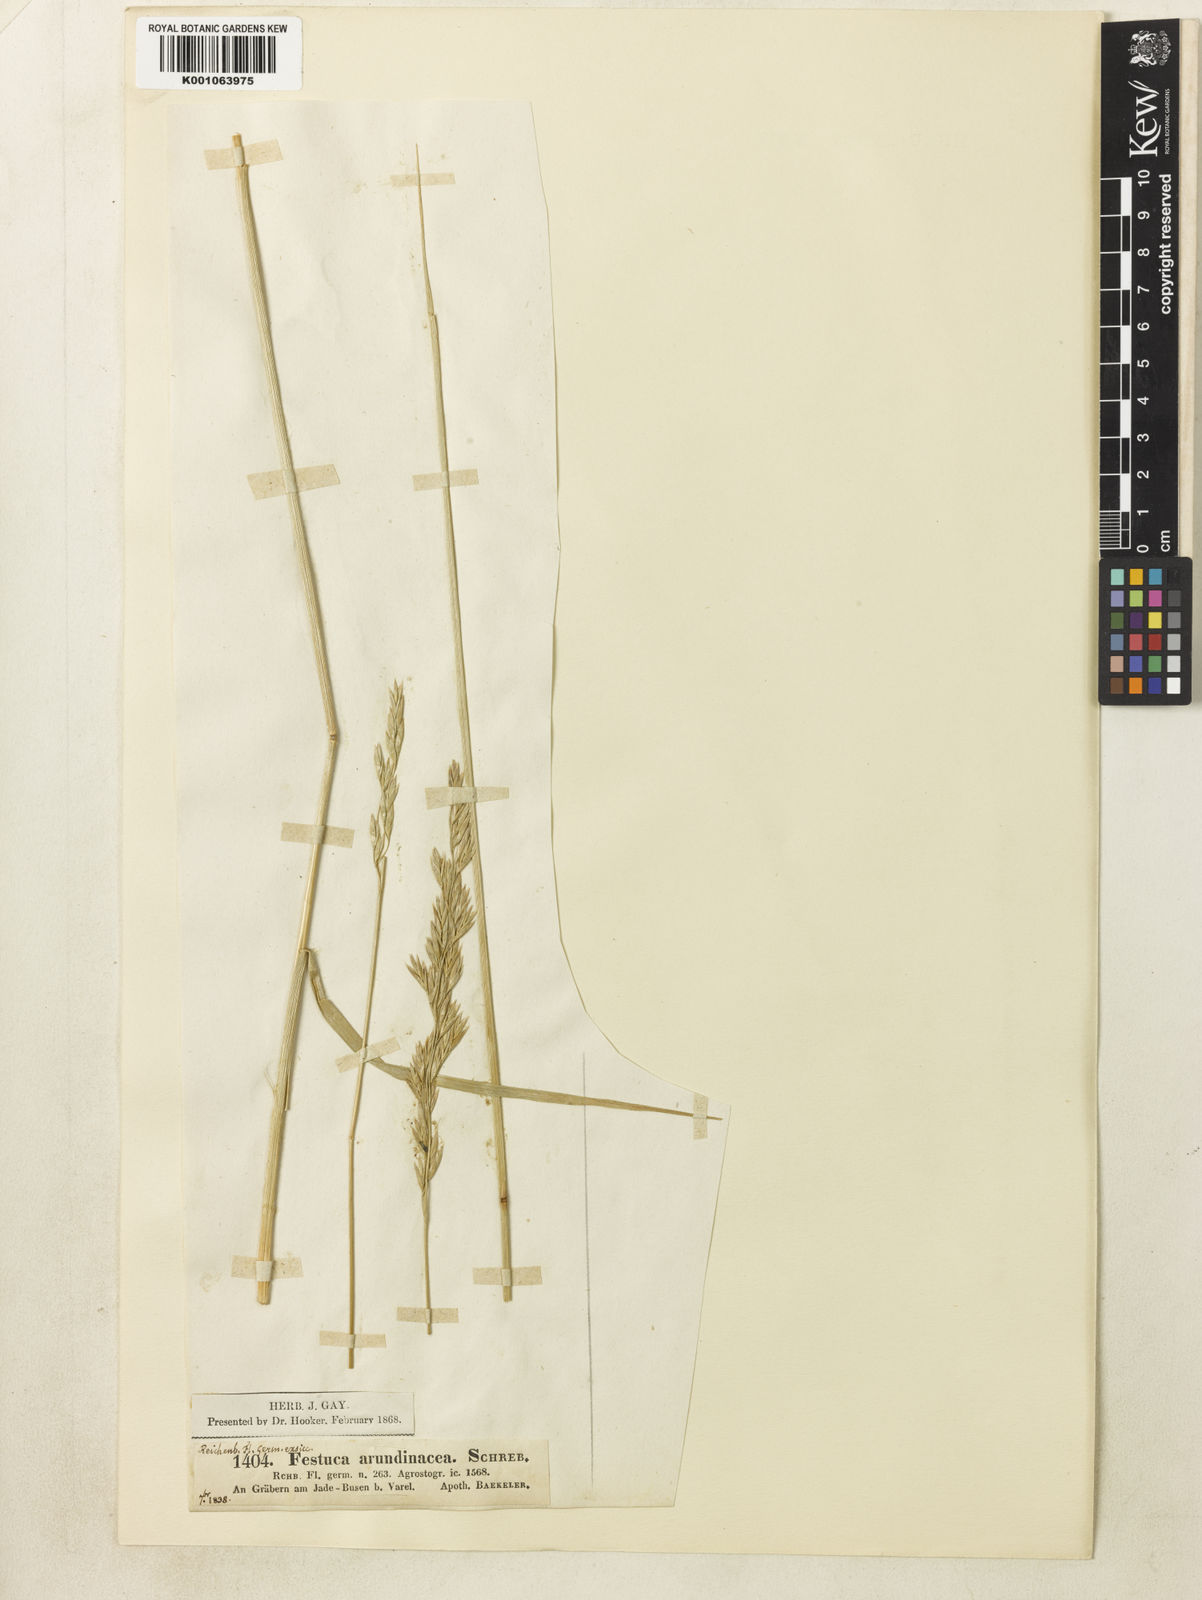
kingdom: Plantae
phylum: Tracheophyta
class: Liliopsida
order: Poales
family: Poaceae
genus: Lolium
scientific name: Lolium arundinaceum
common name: Reed fescue
